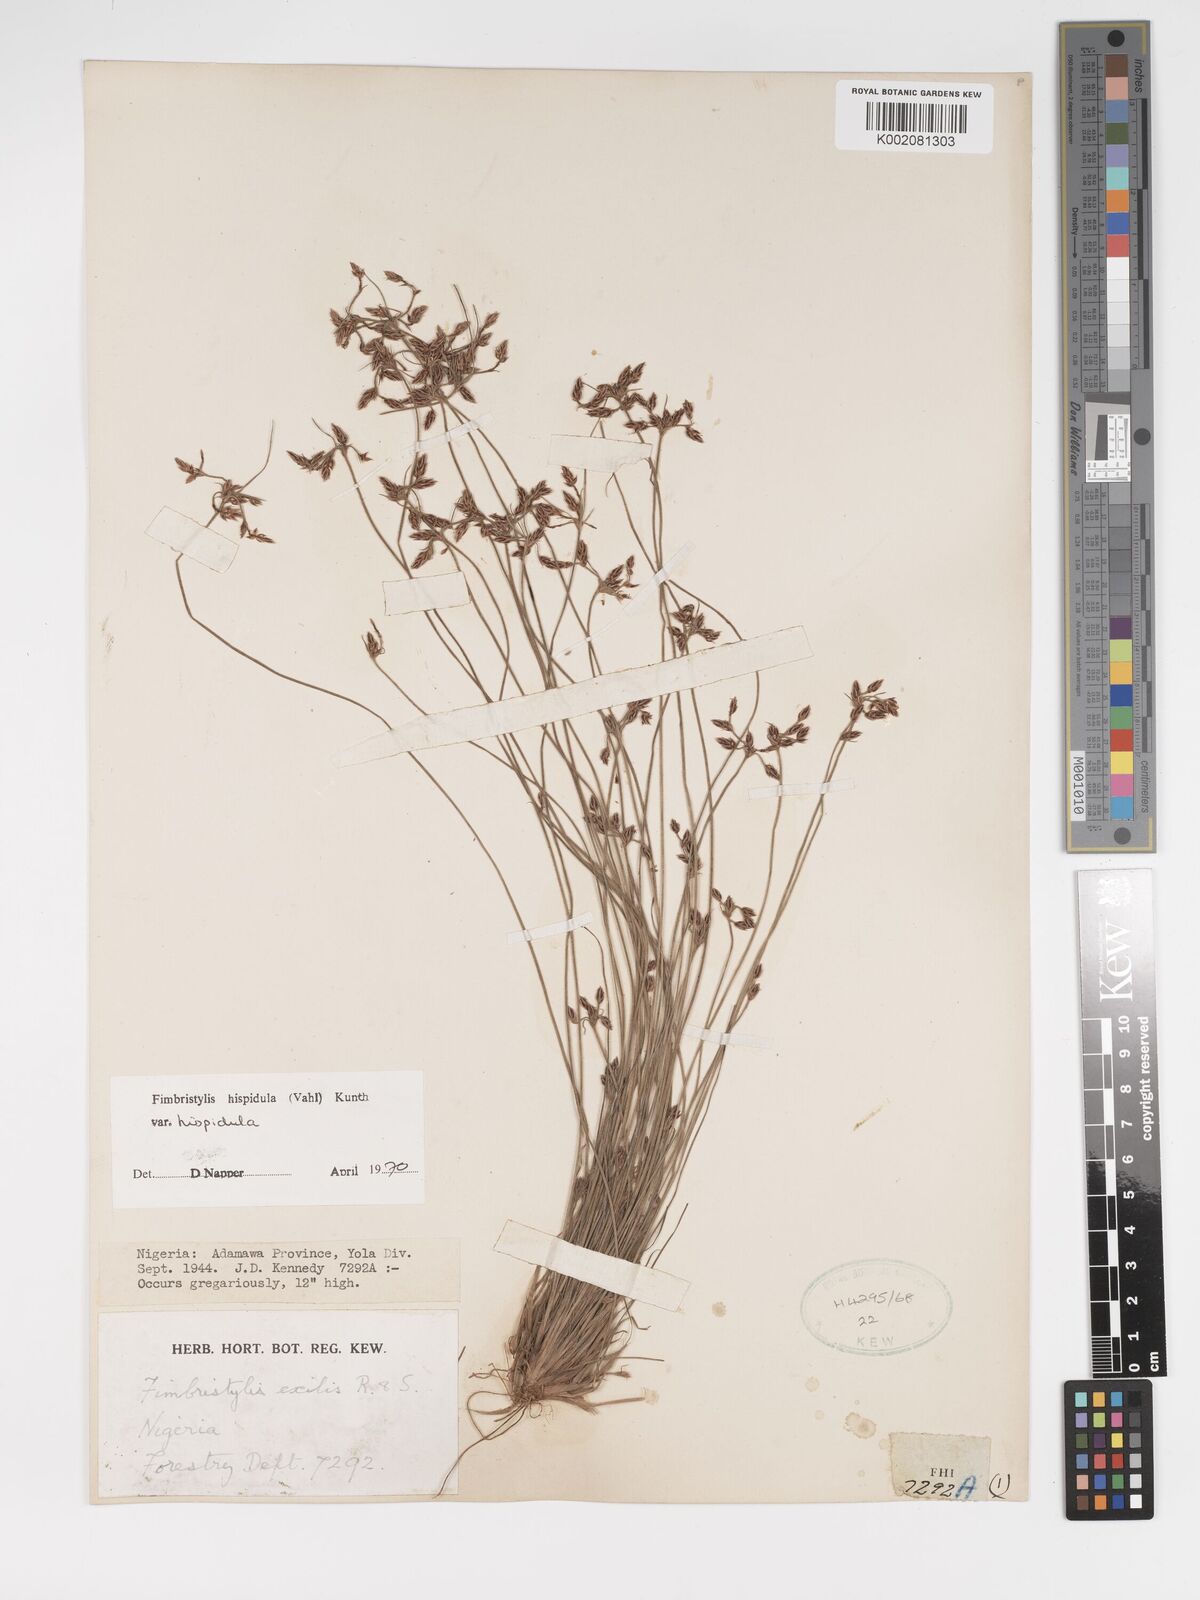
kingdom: Plantae
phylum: Tracheophyta
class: Liliopsida
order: Poales
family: Cyperaceae
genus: Bulbostylis
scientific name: Bulbostylis hispidula
